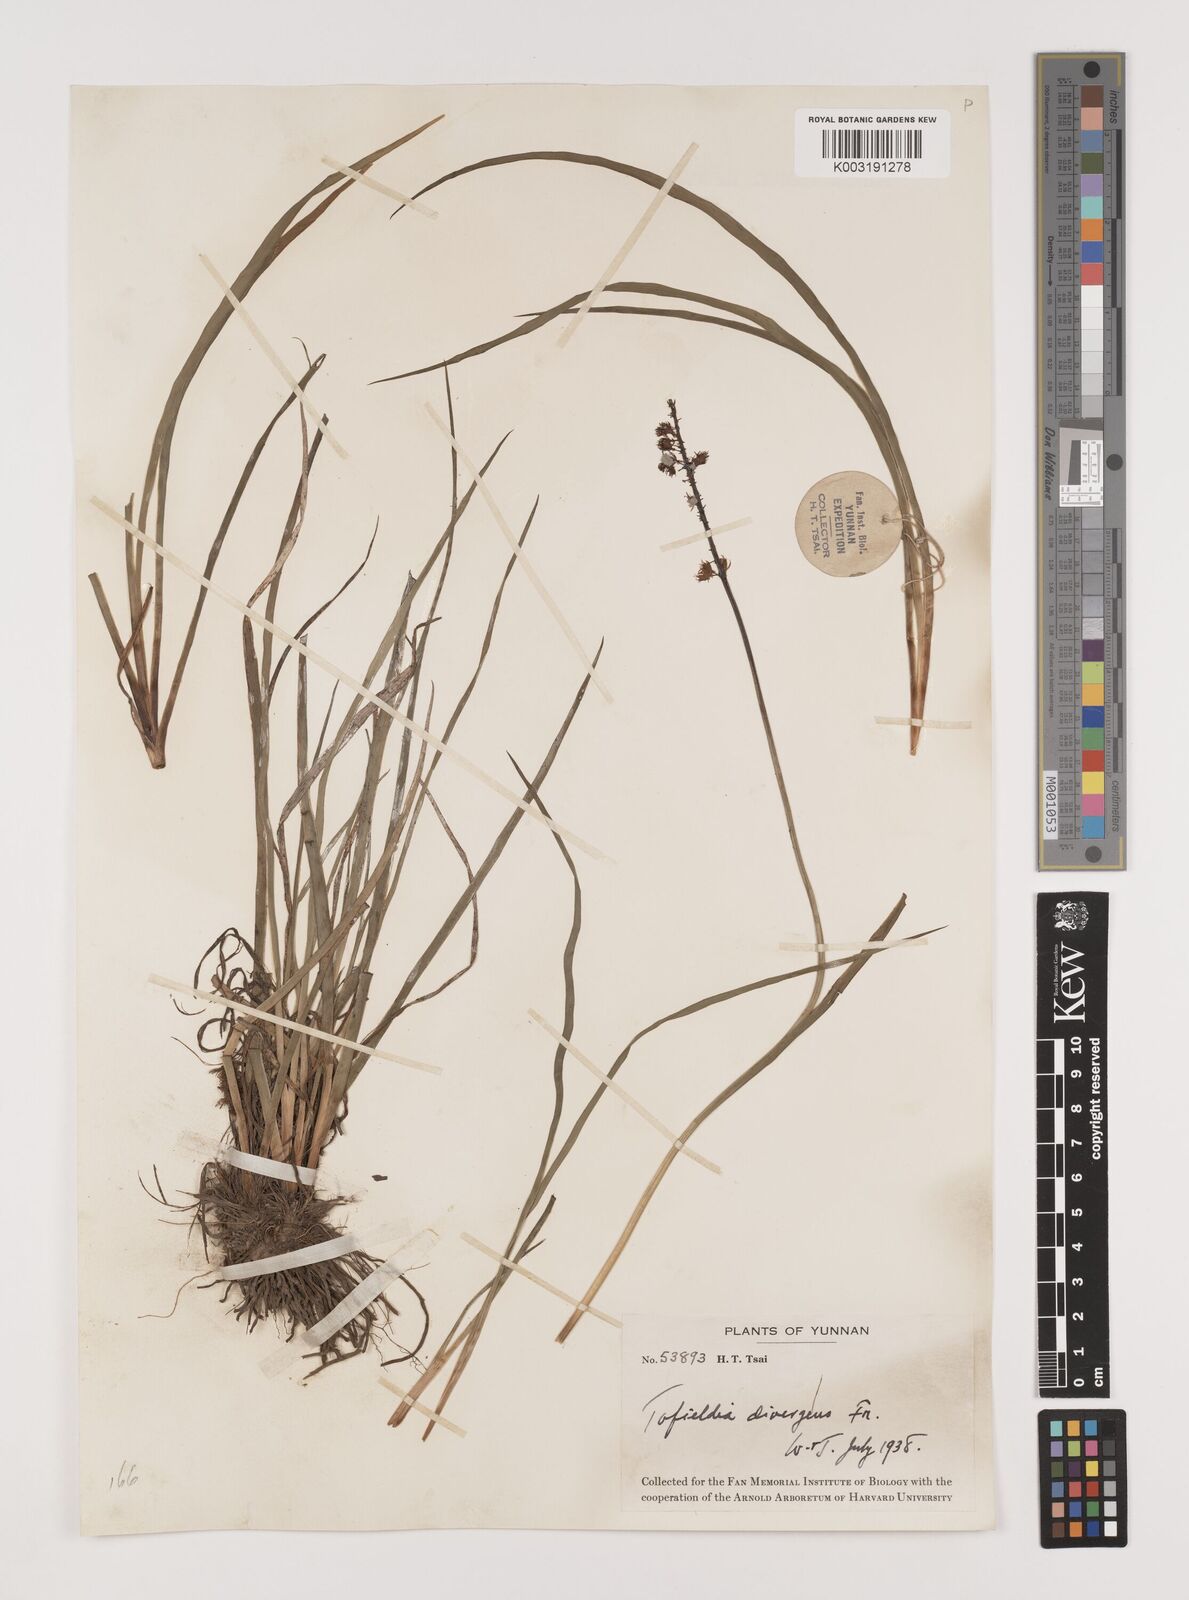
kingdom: Plantae
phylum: Tracheophyta
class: Liliopsida
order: Alismatales
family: Tofieldiaceae
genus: Tofieldia
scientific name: Tofieldia divergens
